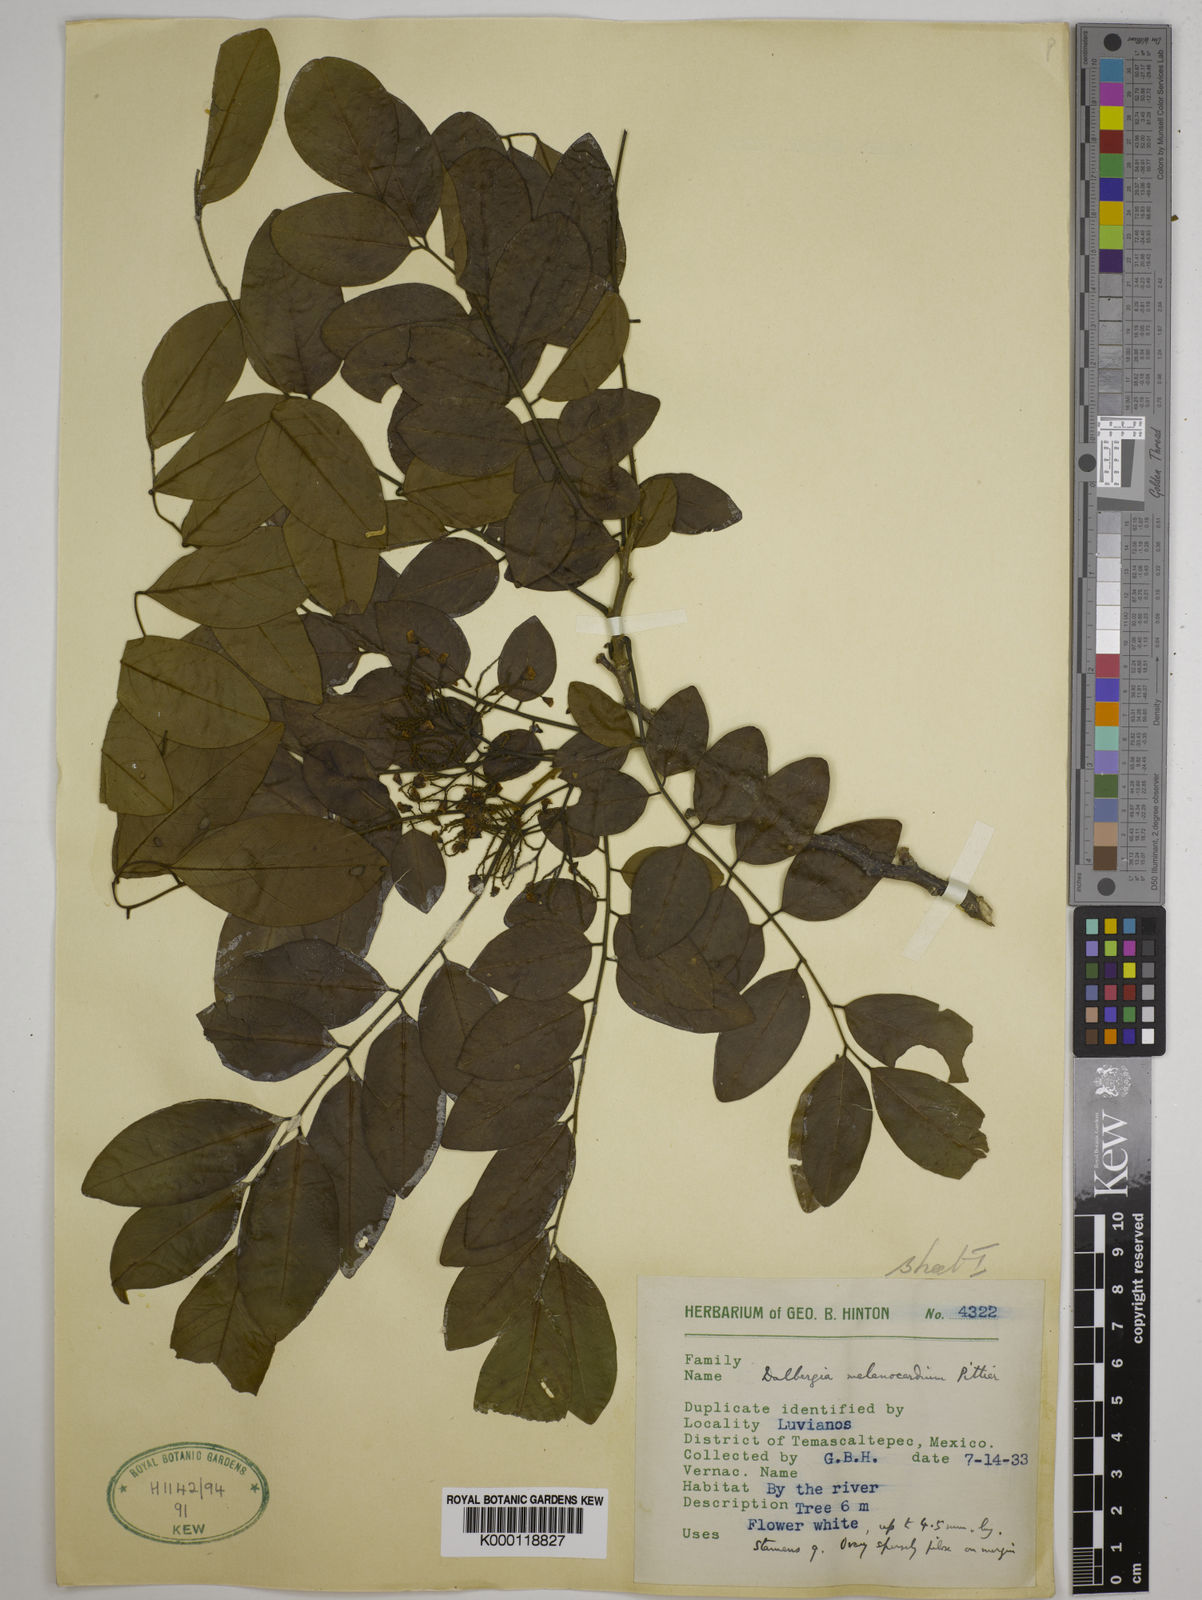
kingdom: Plantae
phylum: Tracheophyta
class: Magnoliopsida
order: Fabales
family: Fabaceae
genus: Dalbergia
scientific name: Dalbergia melanocardium
